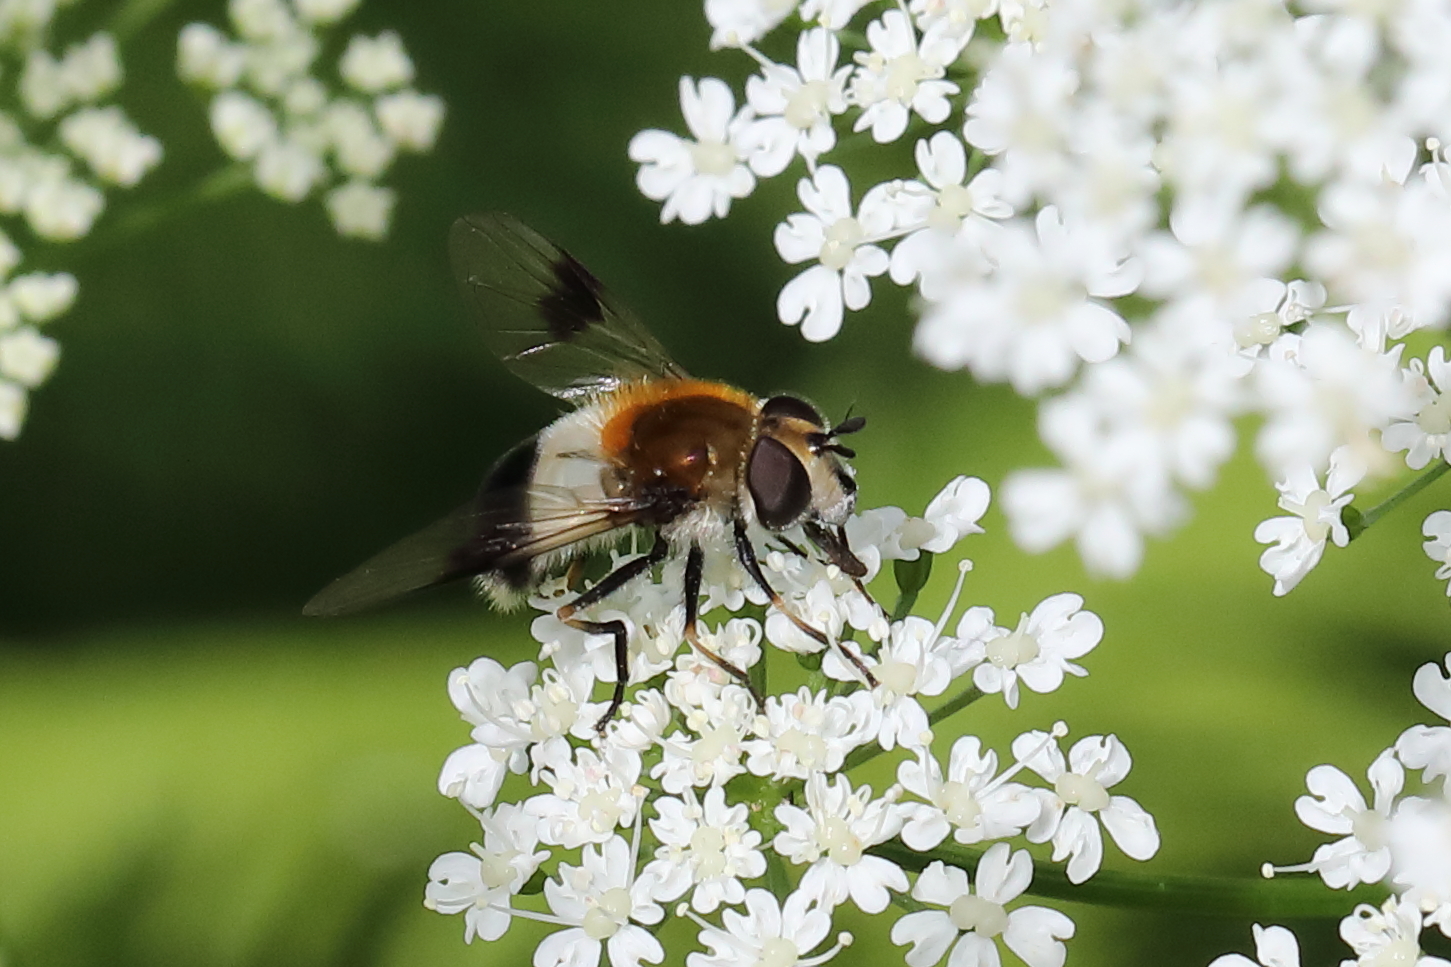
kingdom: Animalia
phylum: Arthropoda
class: Insecta
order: Diptera
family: Syrphidae
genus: Leucozona
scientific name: Leucozona lucorum
